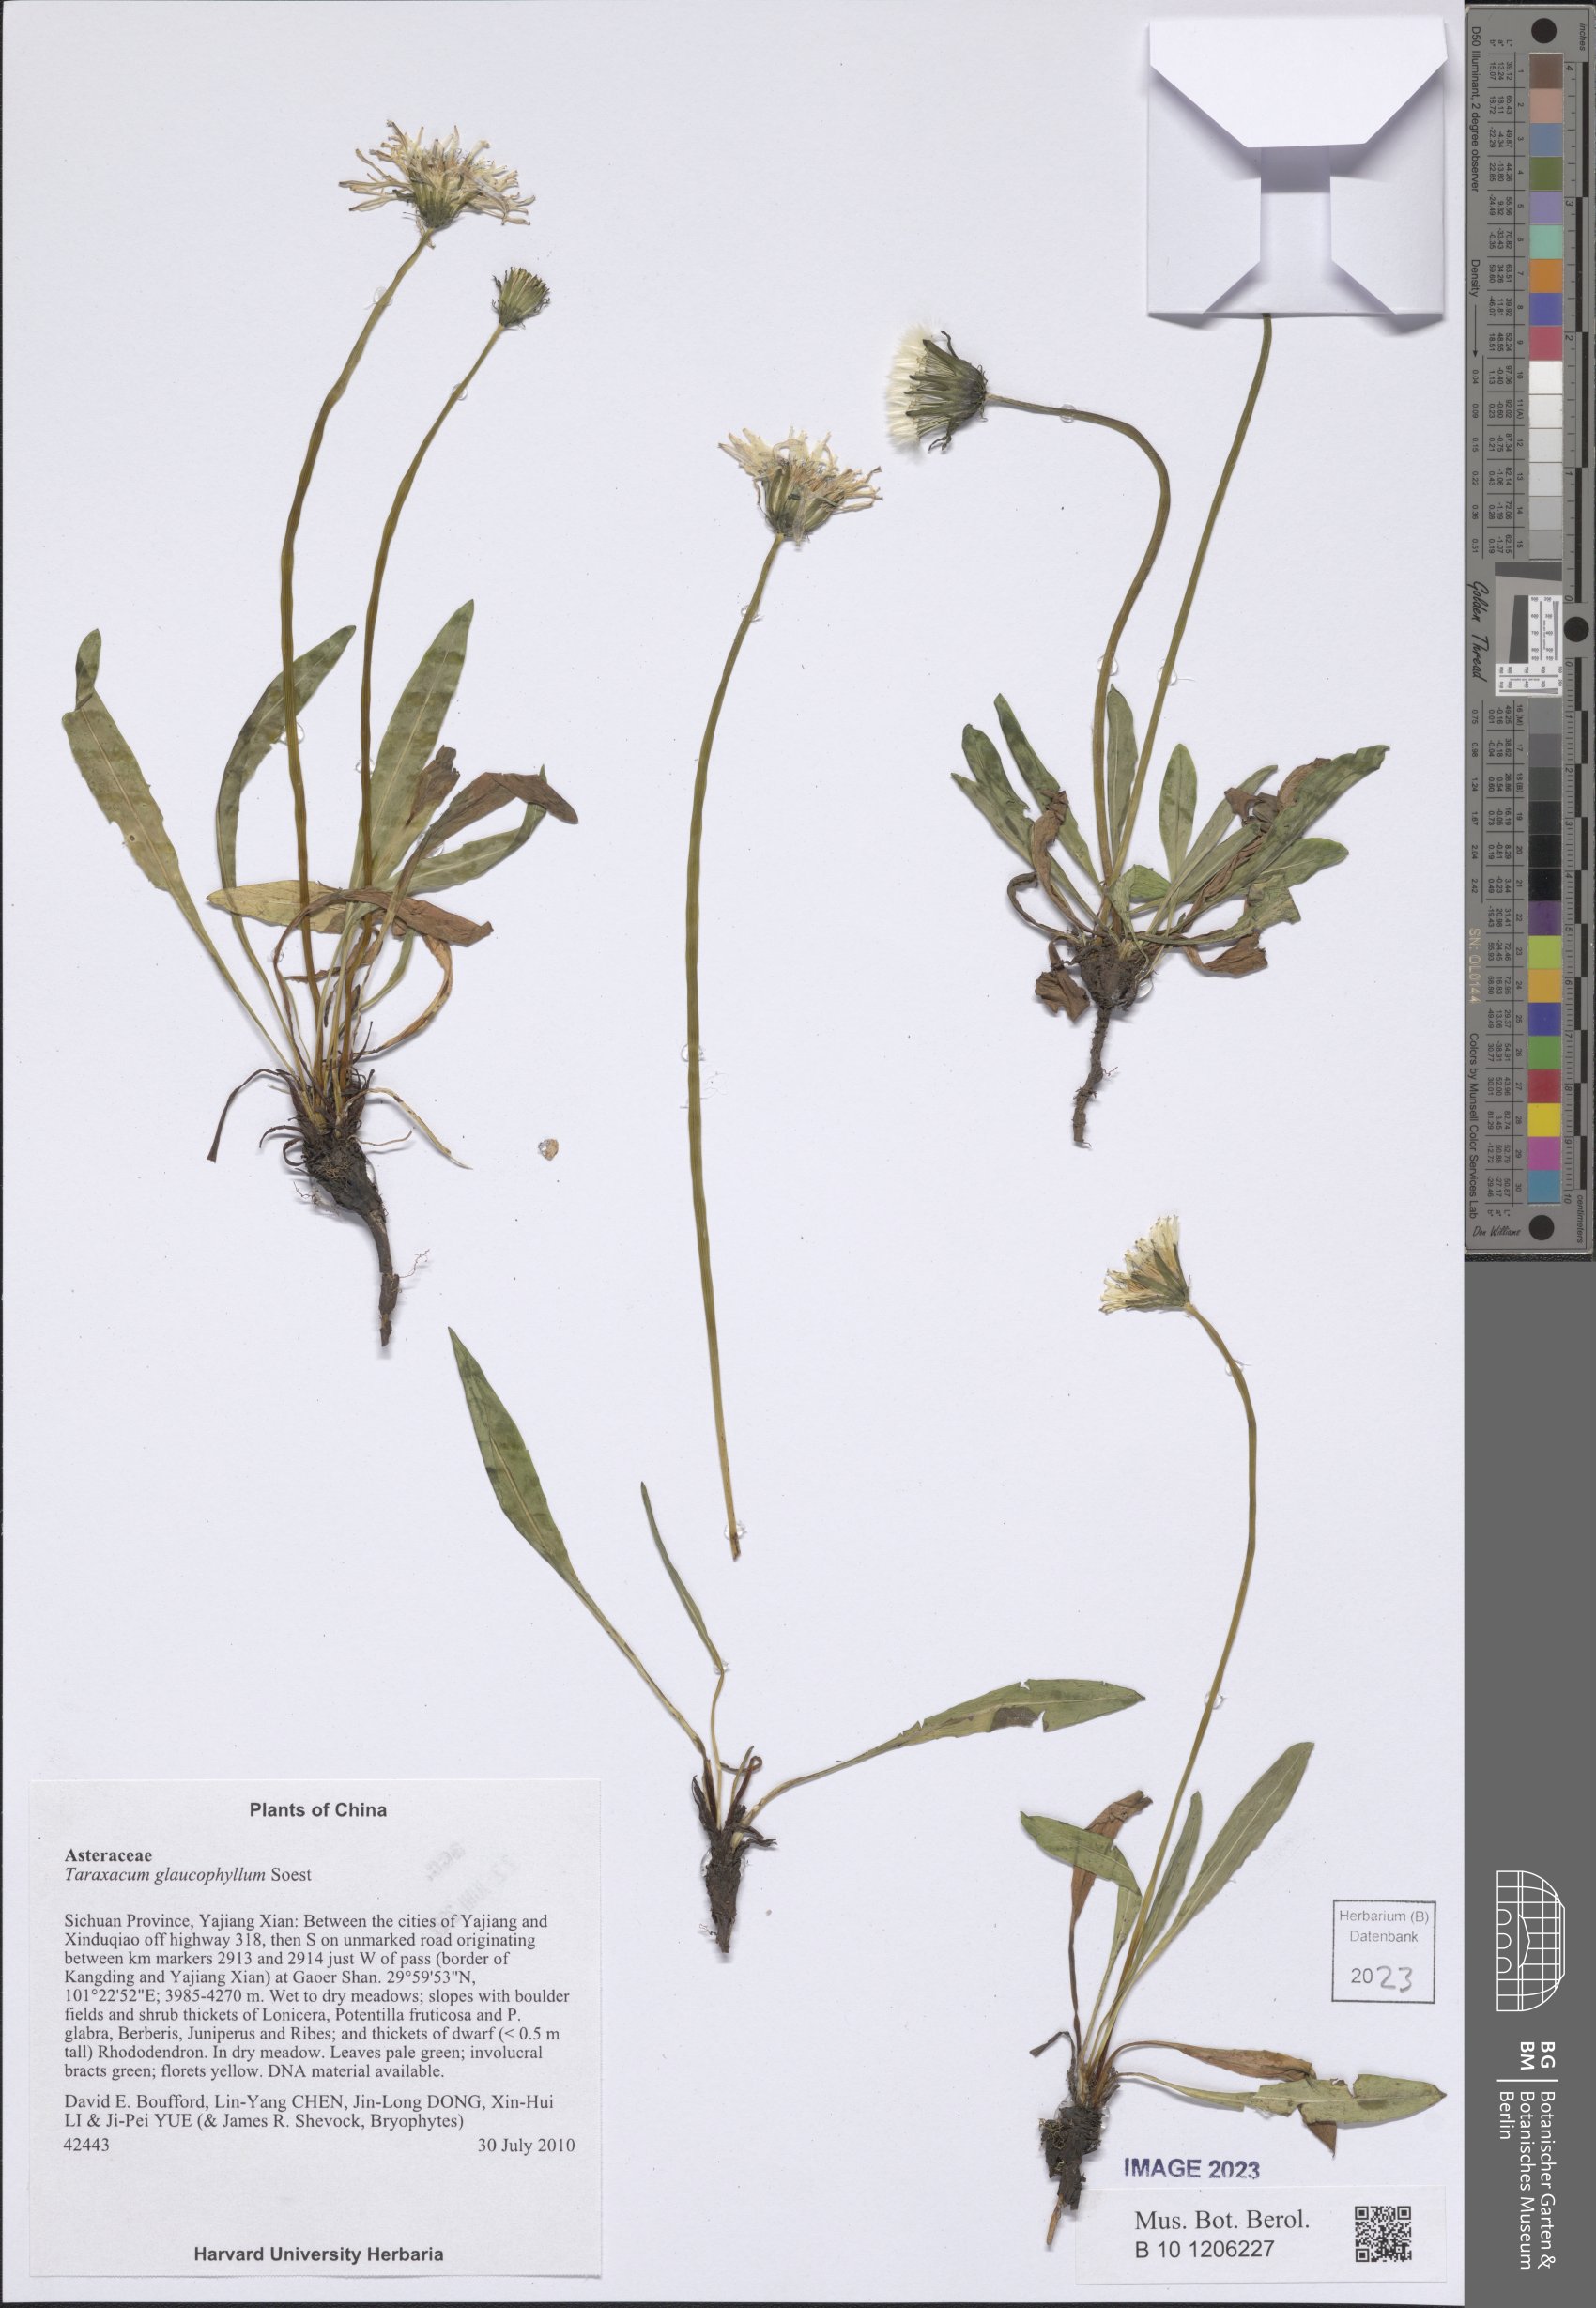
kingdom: Plantae
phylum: Tracheophyta
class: Magnoliopsida
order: Asterales
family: Asteraceae
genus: Taraxacum
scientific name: Taraxacum glaucophyllum
